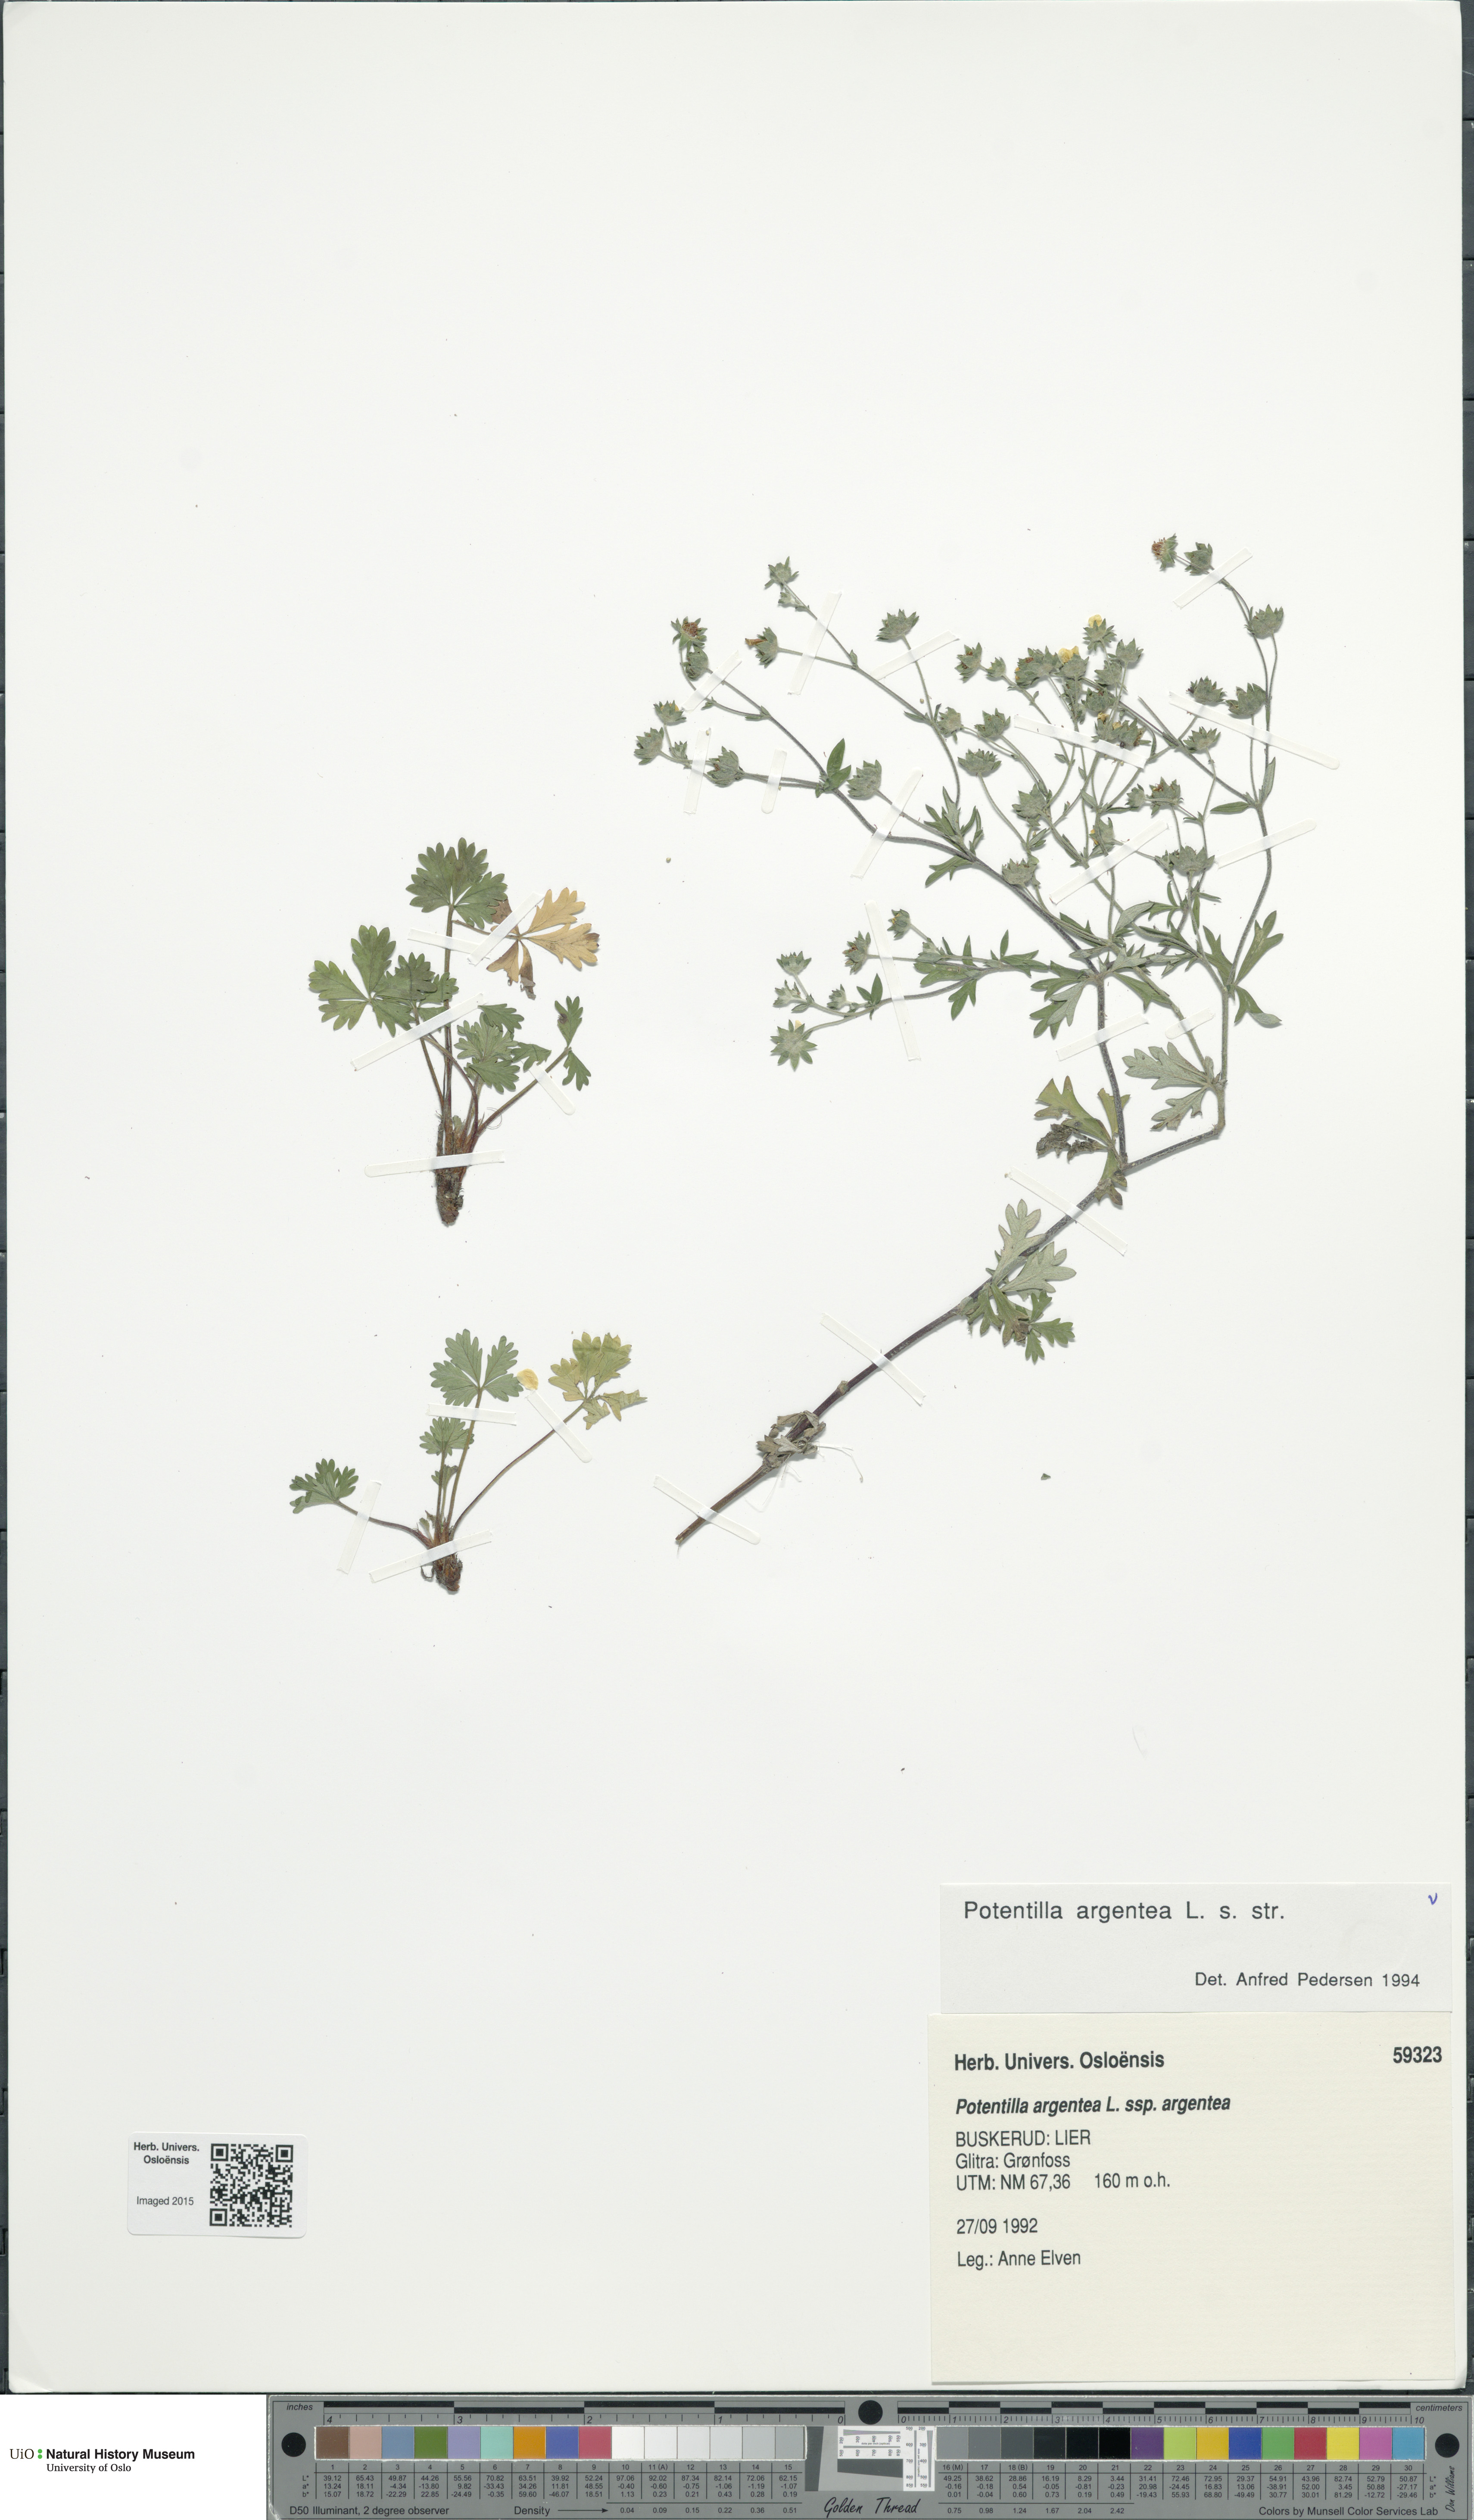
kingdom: Plantae
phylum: Tracheophyta
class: Magnoliopsida
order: Rosales
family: Rosaceae
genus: Potentilla
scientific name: Potentilla argentea
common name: Hoary cinquefoil
